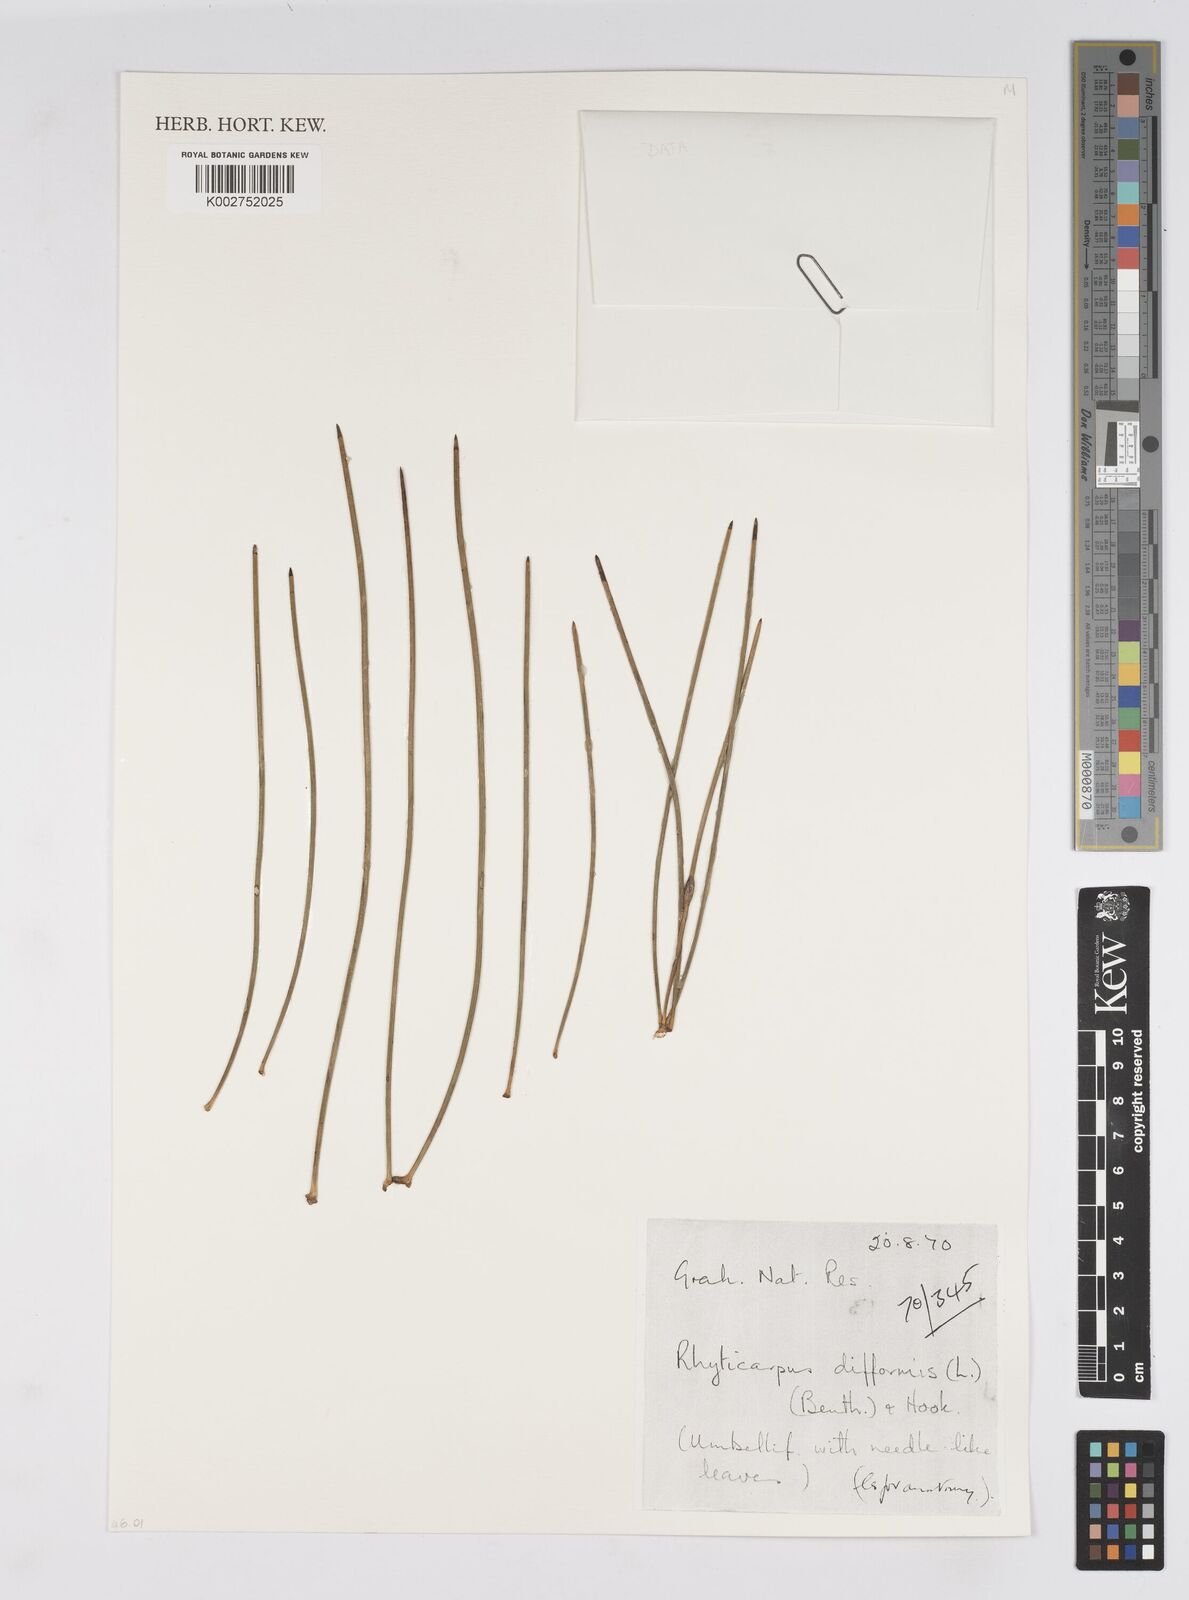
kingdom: Plantae
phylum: Tracheophyta
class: Magnoliopsida
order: Apiales
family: Apiaceae
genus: Anginon
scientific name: Anginon difforme
